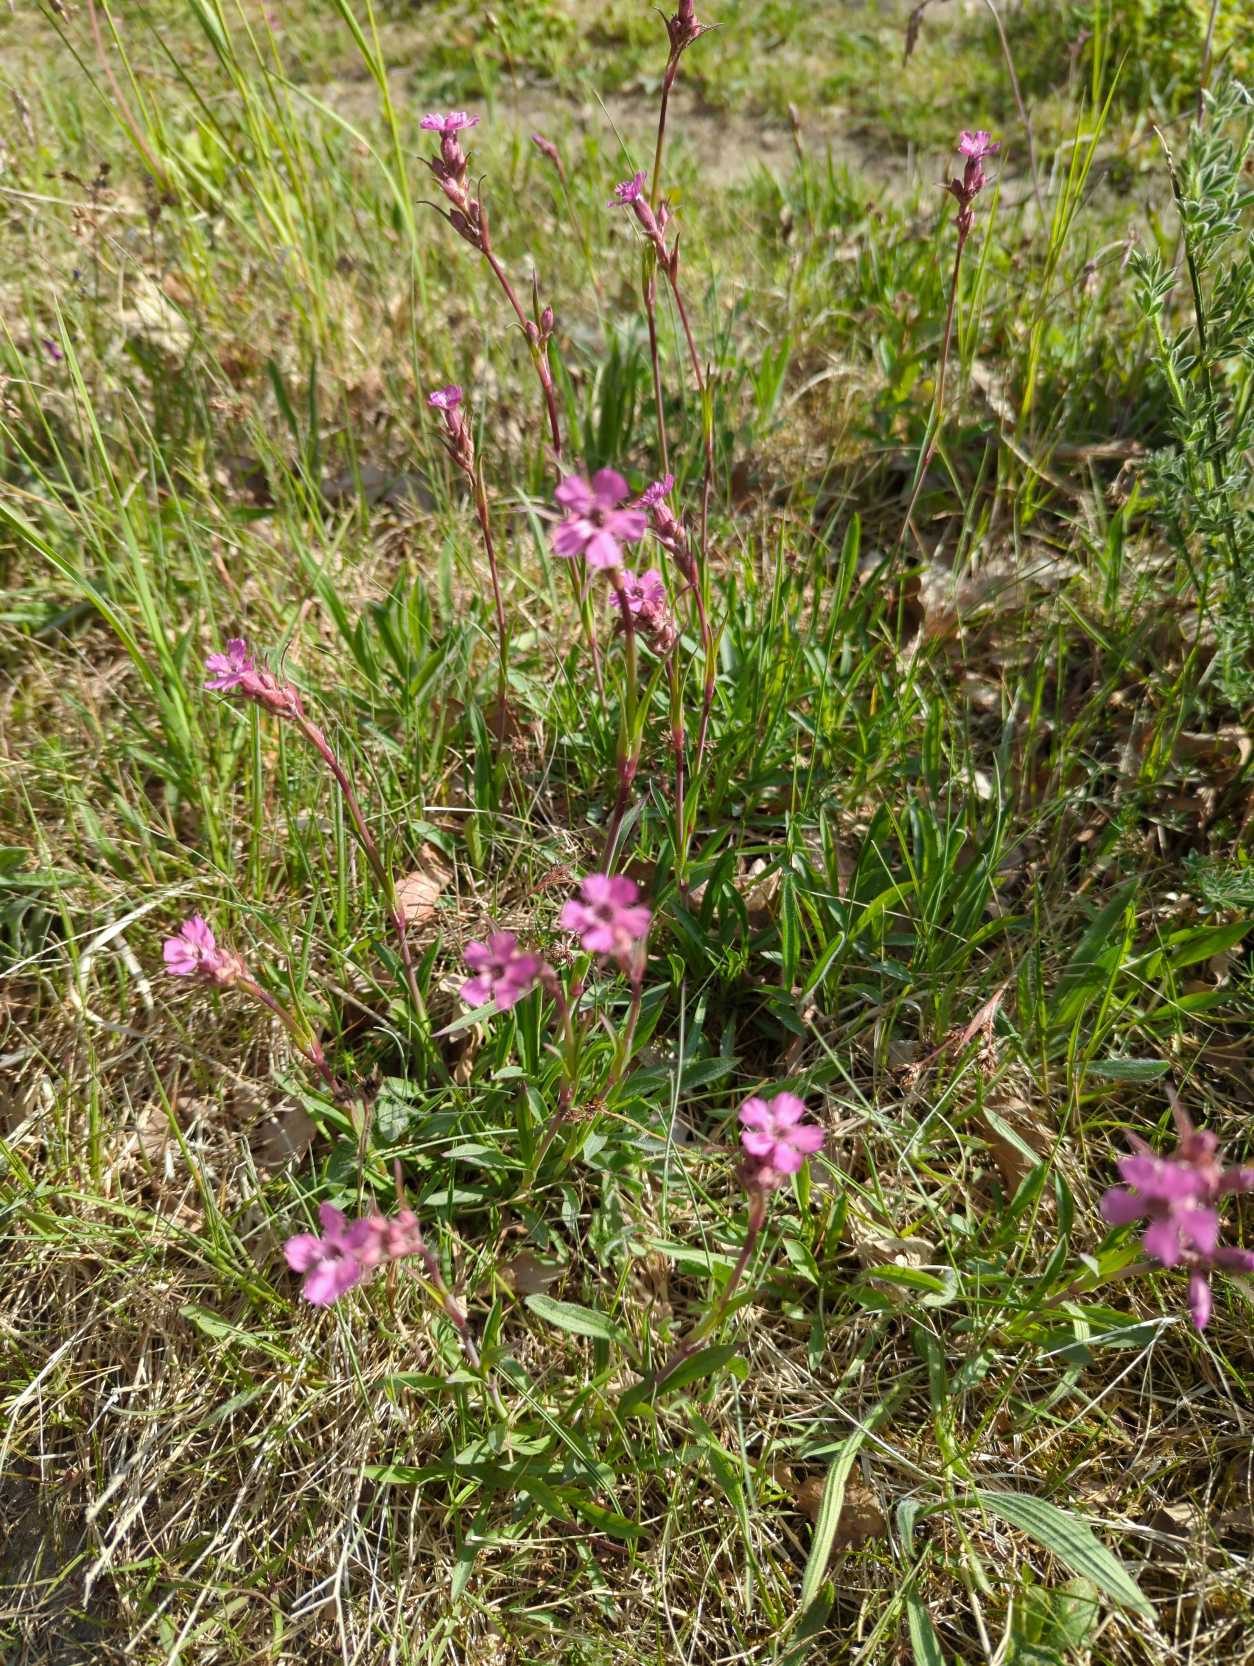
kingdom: Plantae
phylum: Tracheophyta
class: Magnoliopsida
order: Caryophyllales
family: Caryophyllaceae
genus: Viscaria
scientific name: Viscaria vulgaris
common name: Tjærenellike
